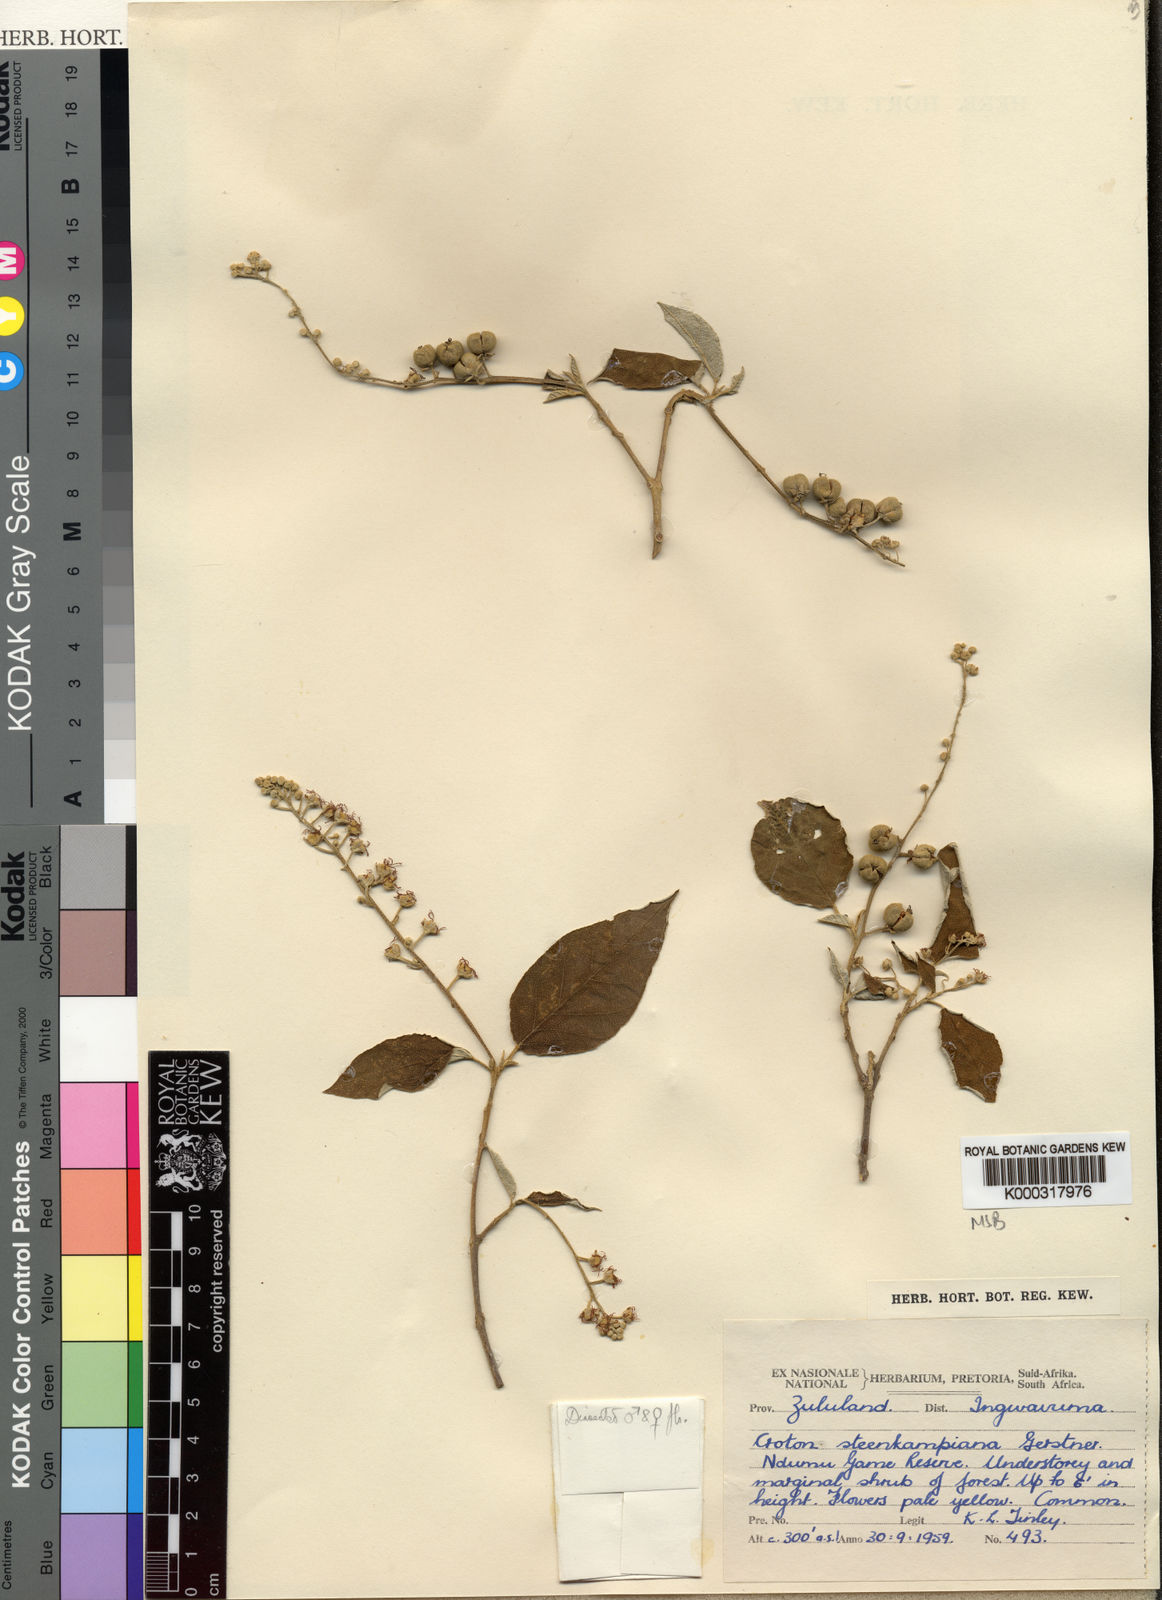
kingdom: Plantae
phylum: Tracheophyta
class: Magnoliopsida
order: Malpighiales
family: Euphorbiaceae
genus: Croton
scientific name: Croton gratissimus
